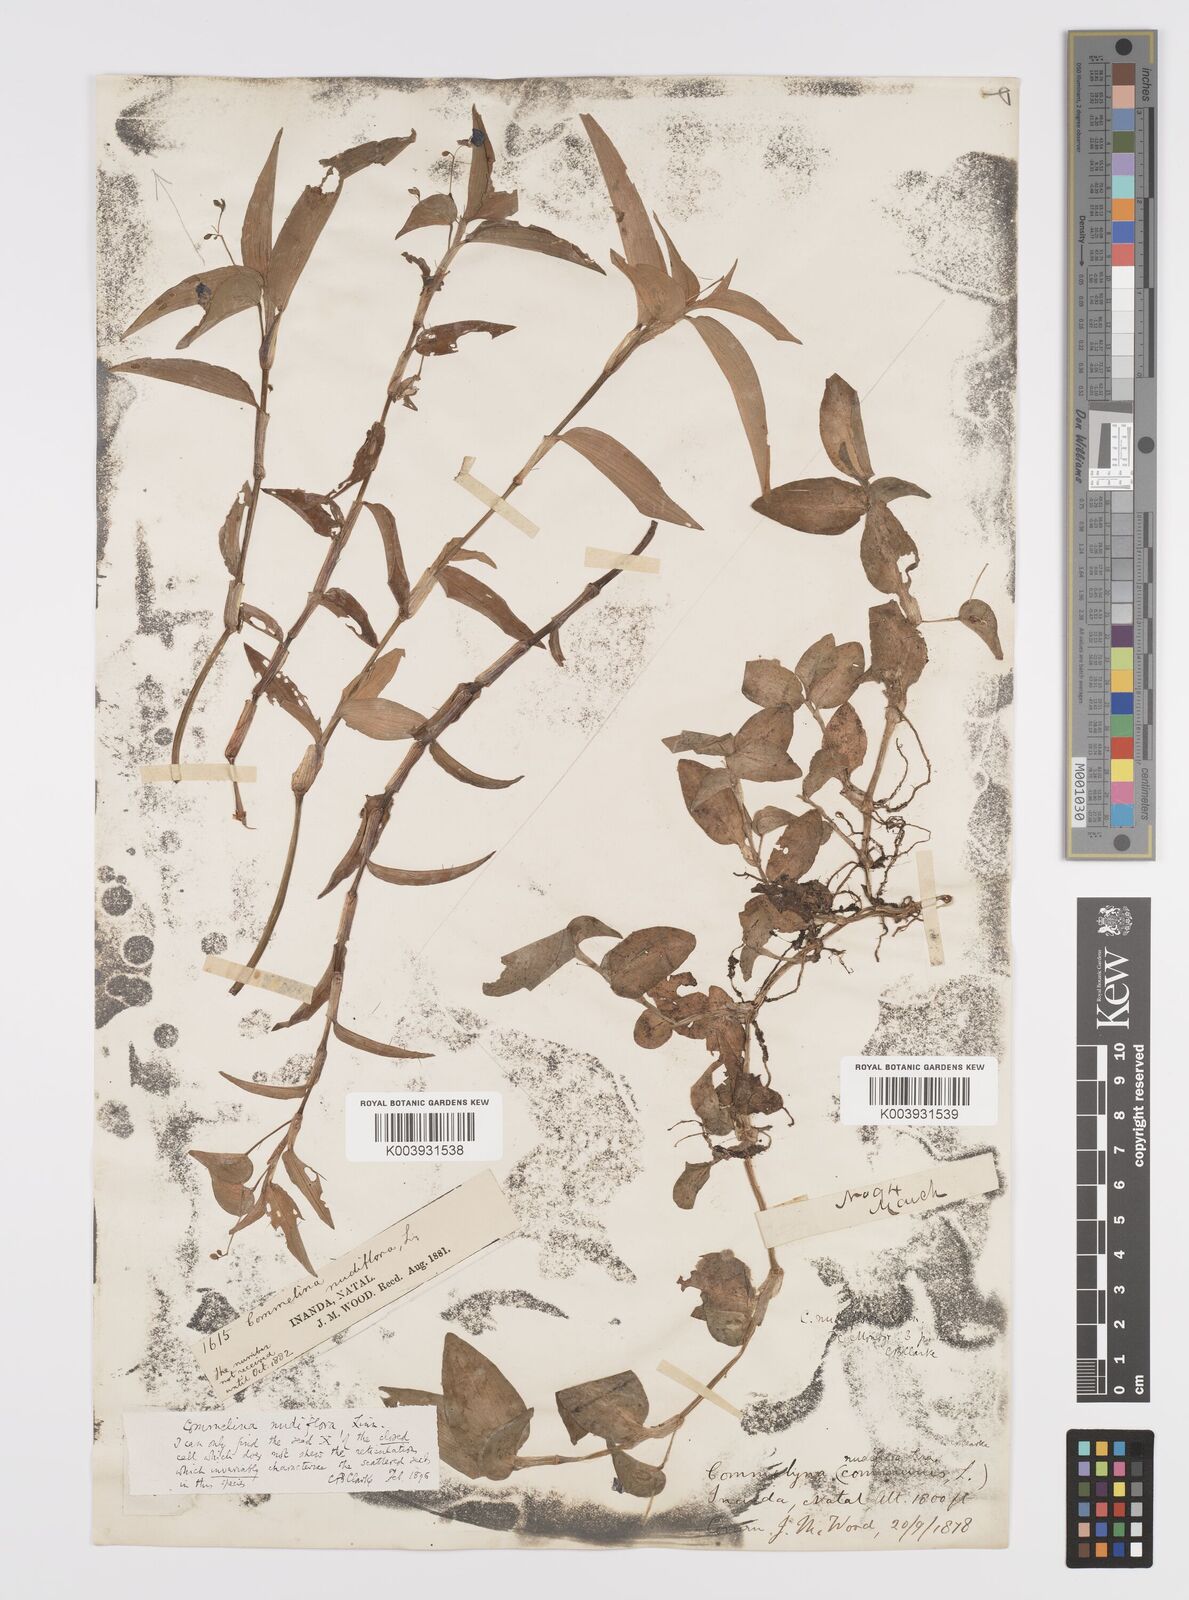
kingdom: Plantae
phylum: Tracheophyta
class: Liliopsida
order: Commelinales
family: Commelinaceae
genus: Commelina
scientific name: Commelina diffusa
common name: Climbing dayflower
